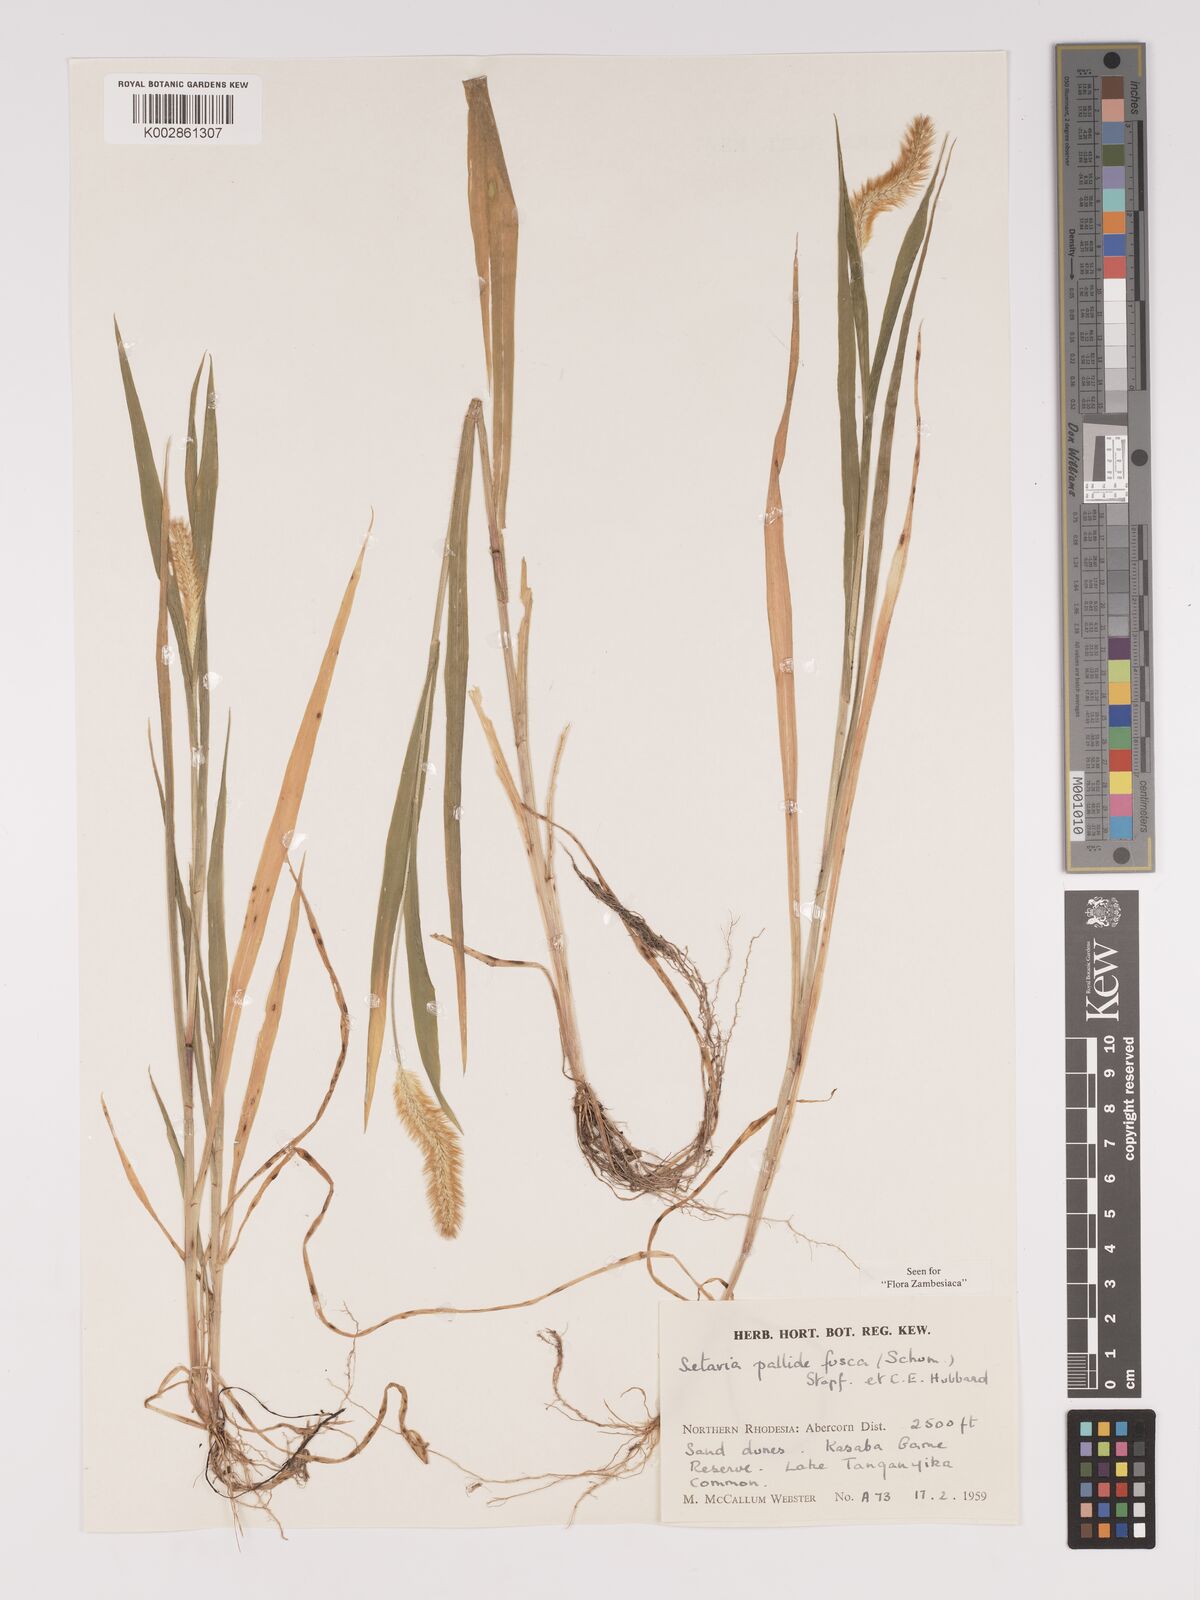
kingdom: Plantae
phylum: Tracheophyta
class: Liliopsida
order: Poales
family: Poaceae
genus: Setaria
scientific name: Setaria pumila
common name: Yellow bristle-grass
